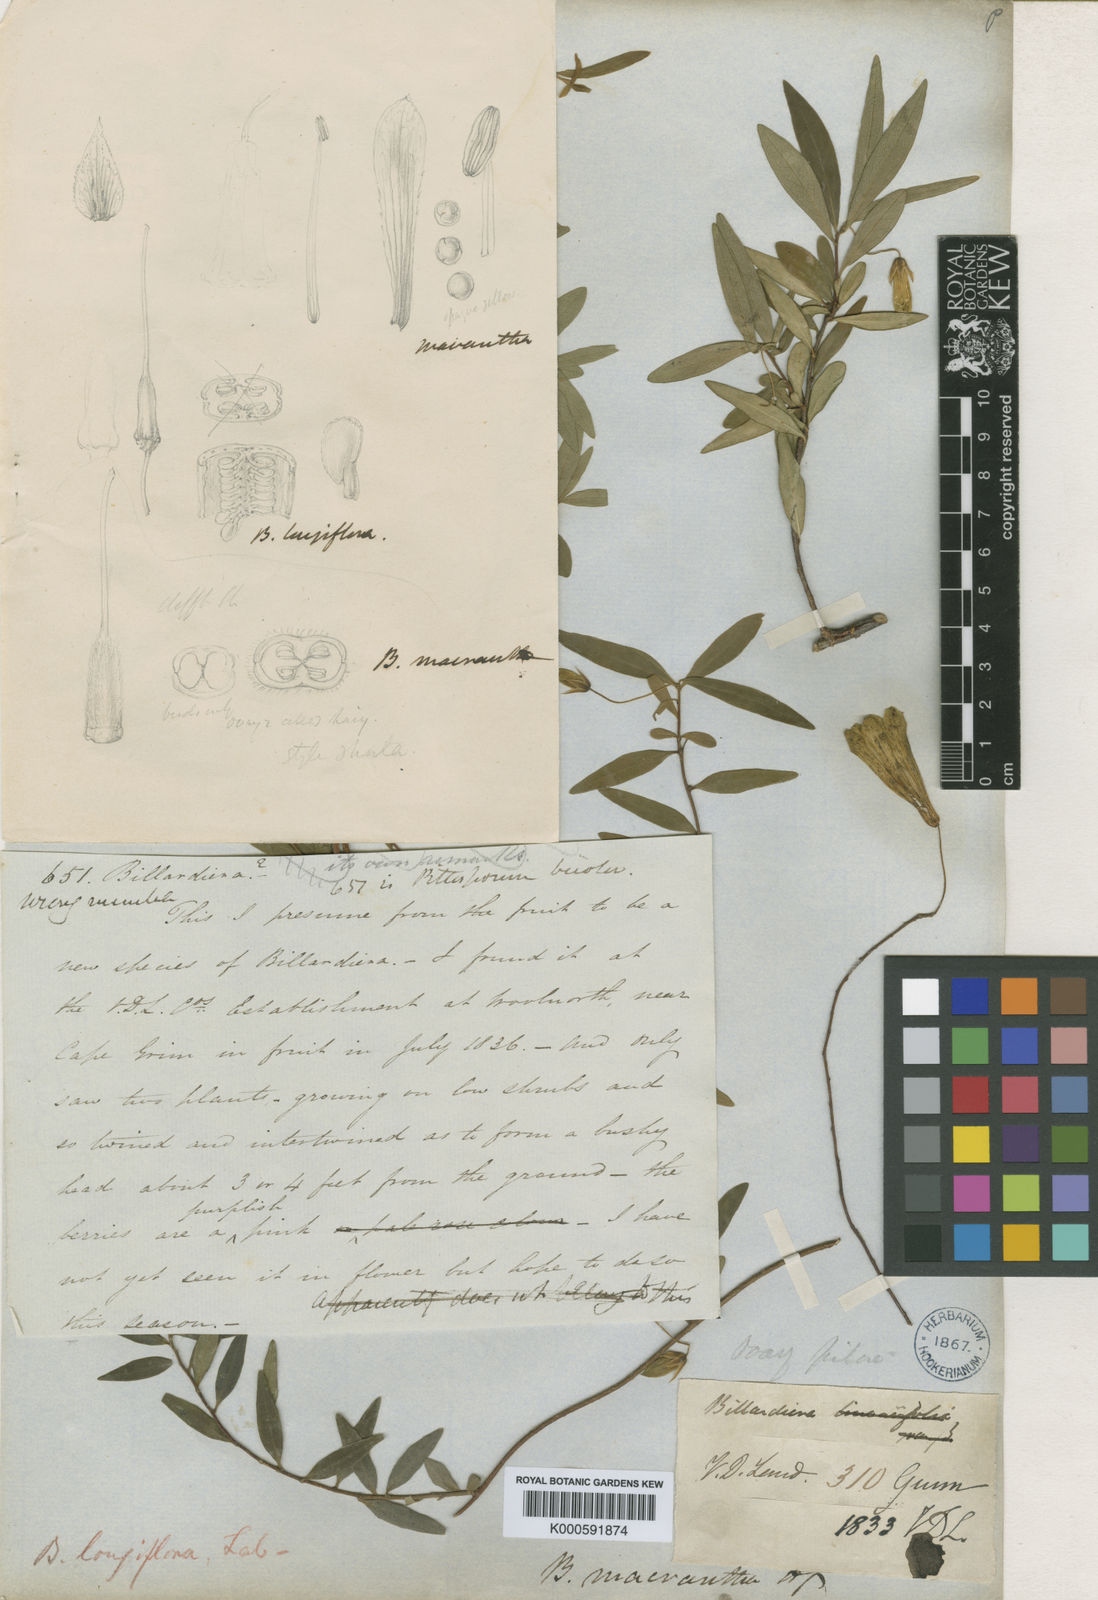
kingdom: Plantae
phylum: Tracheophyta
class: Magnoliopsida
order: Apiales
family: Pittosporaceae
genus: Billardiera
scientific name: Billardiera longiflora
